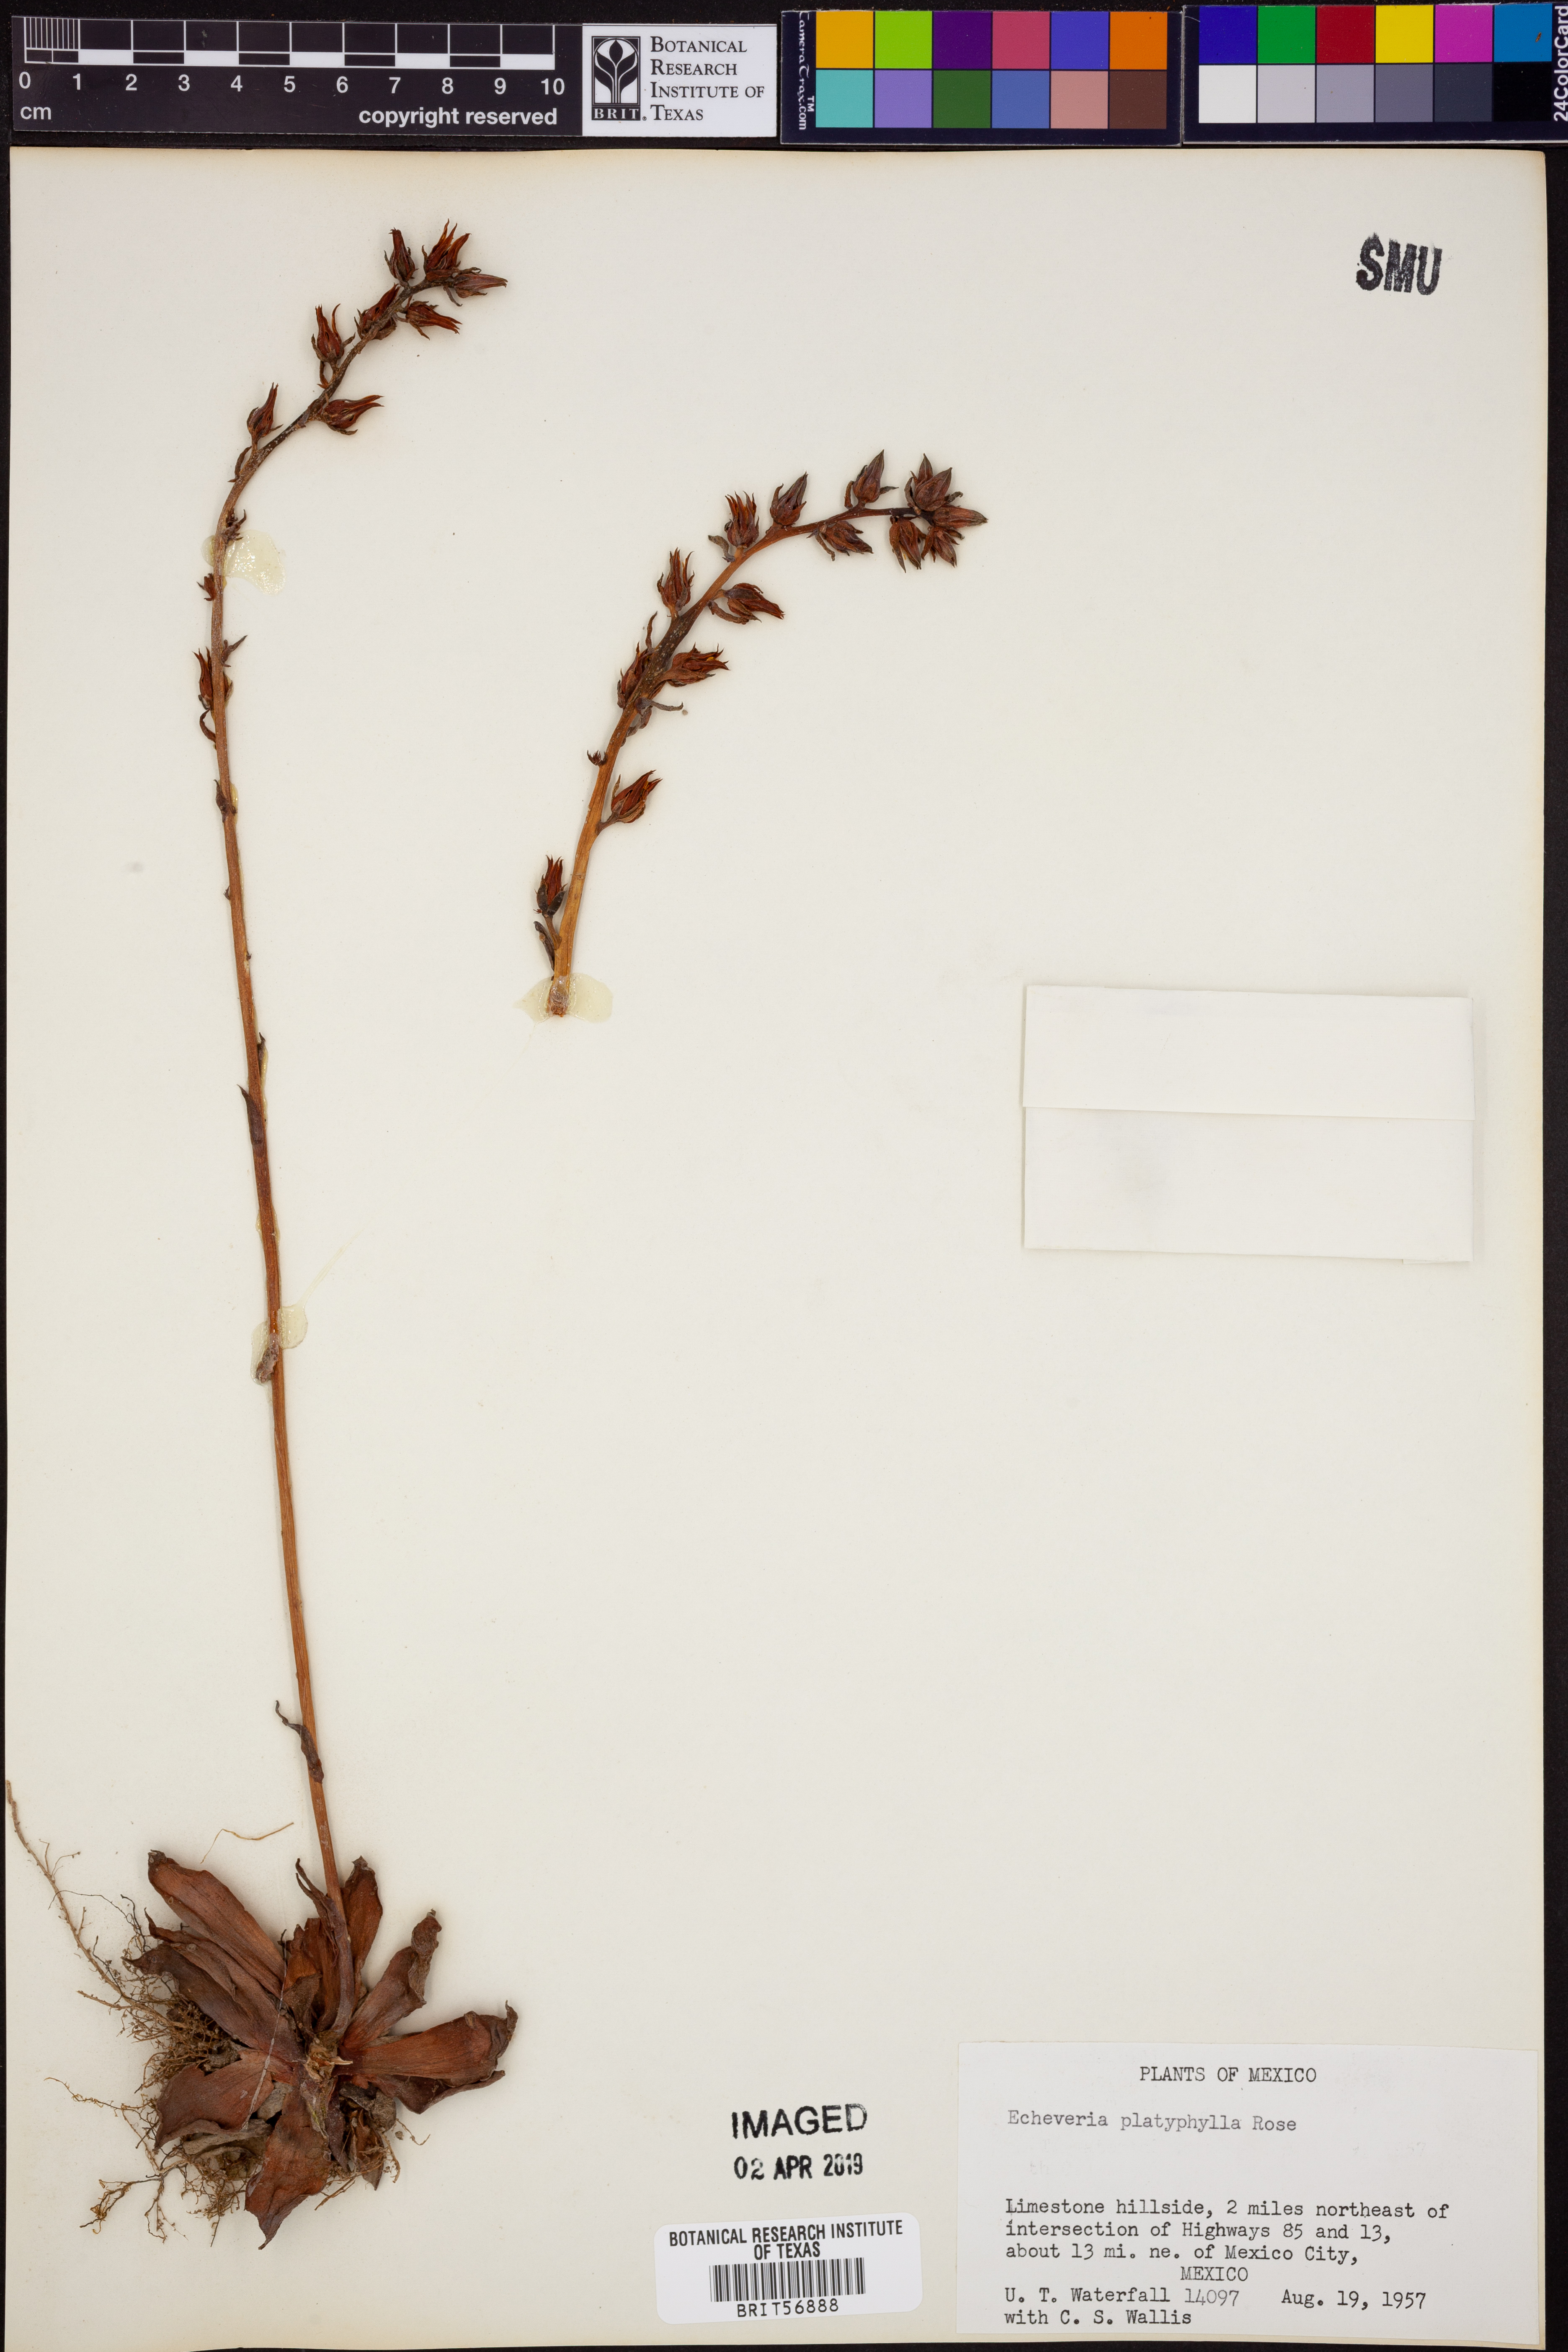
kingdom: Plantae
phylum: Tracheophyta
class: Magnoliopsida
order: Saxifragales
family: Crassulaceae
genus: Echeveria
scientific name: Echeveria platyphylla
